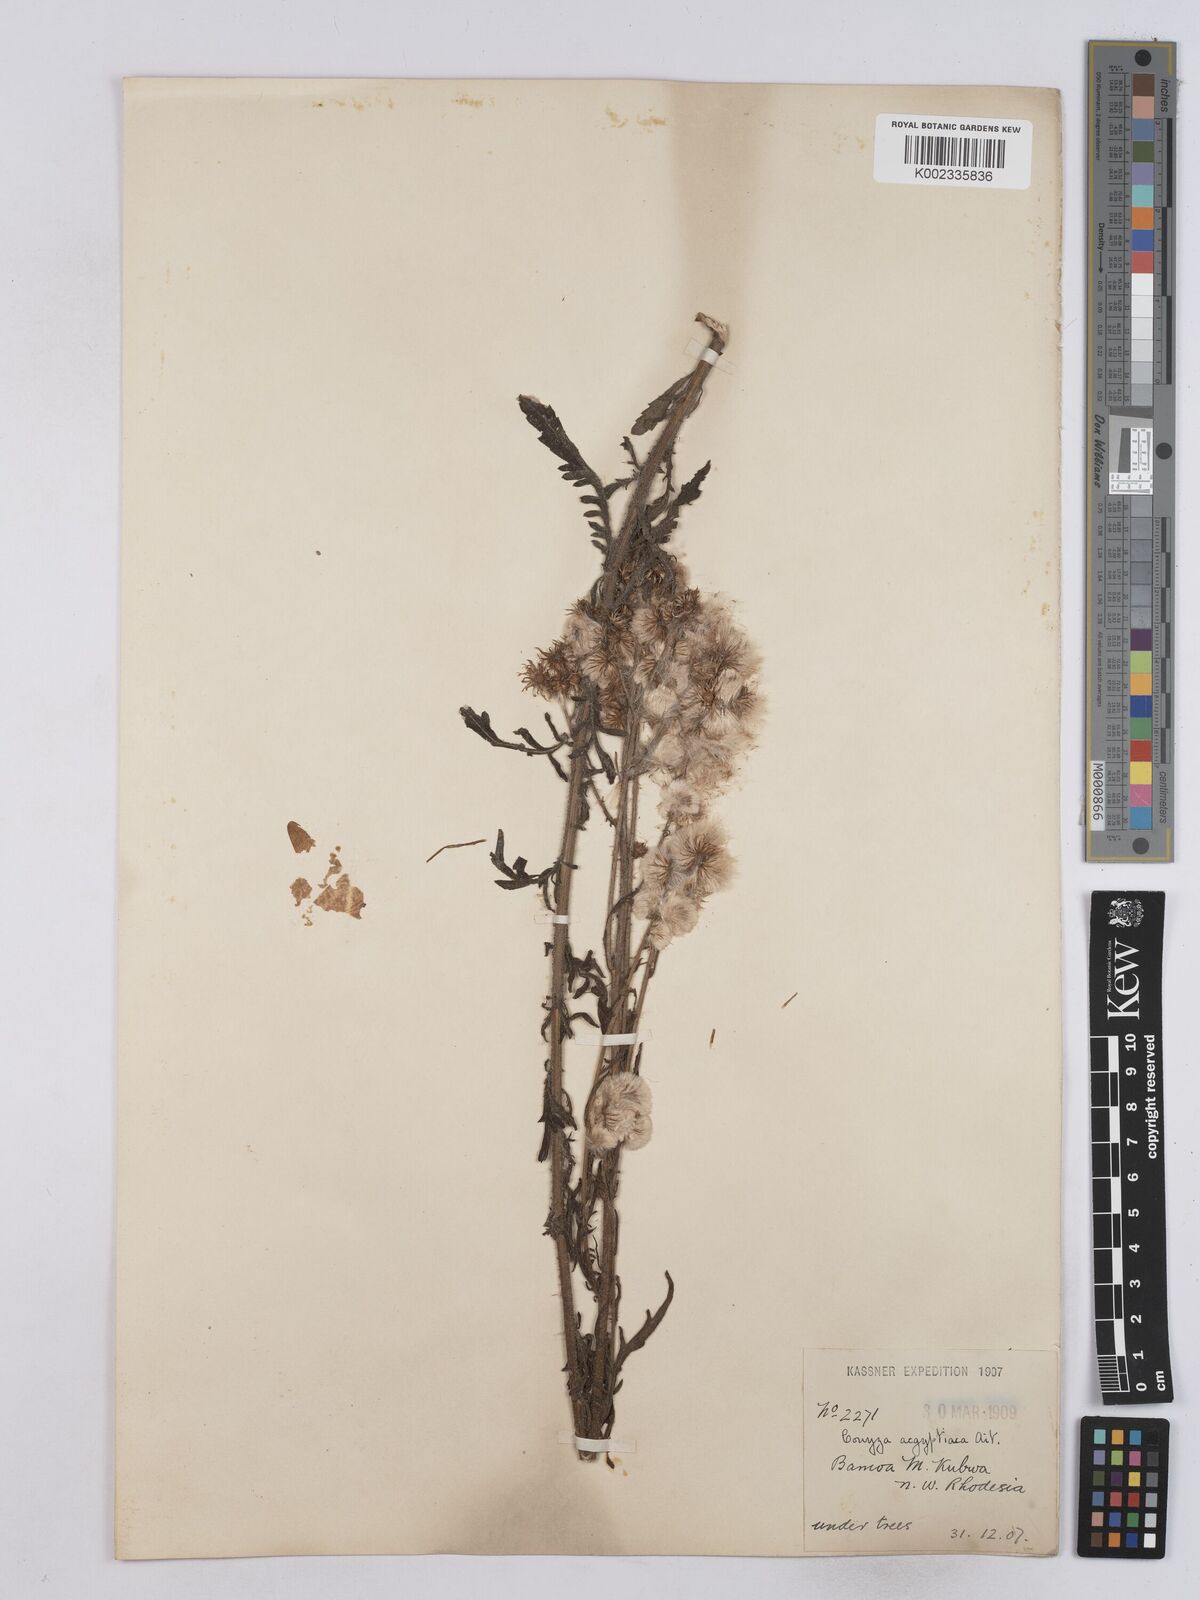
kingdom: Plantae
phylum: Tracheophyta
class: Magnoliopsida
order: Asterales
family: Asteraceae
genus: Nidorella
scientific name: Nidorella aegyptiaca
